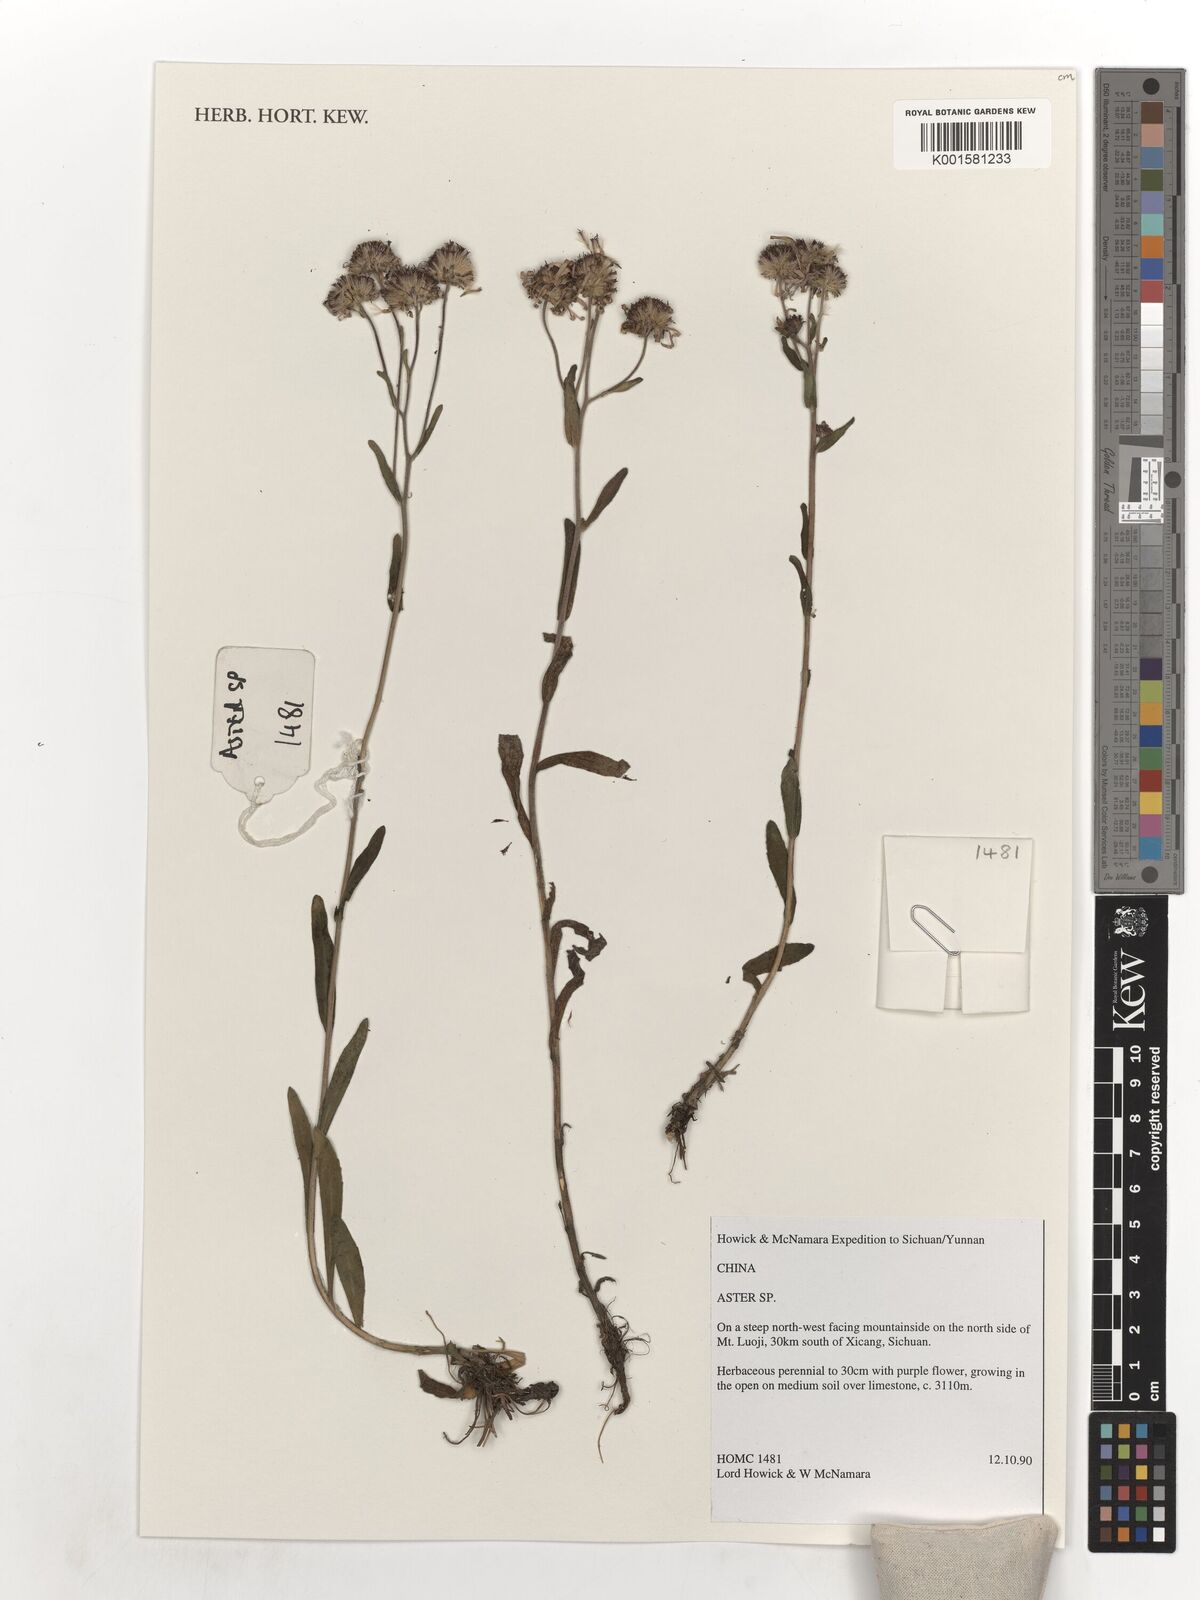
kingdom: Plantae
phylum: Tracheophyta
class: Magnoliopsida
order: Asterales
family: Asteraceae
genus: Aster
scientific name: Aster
